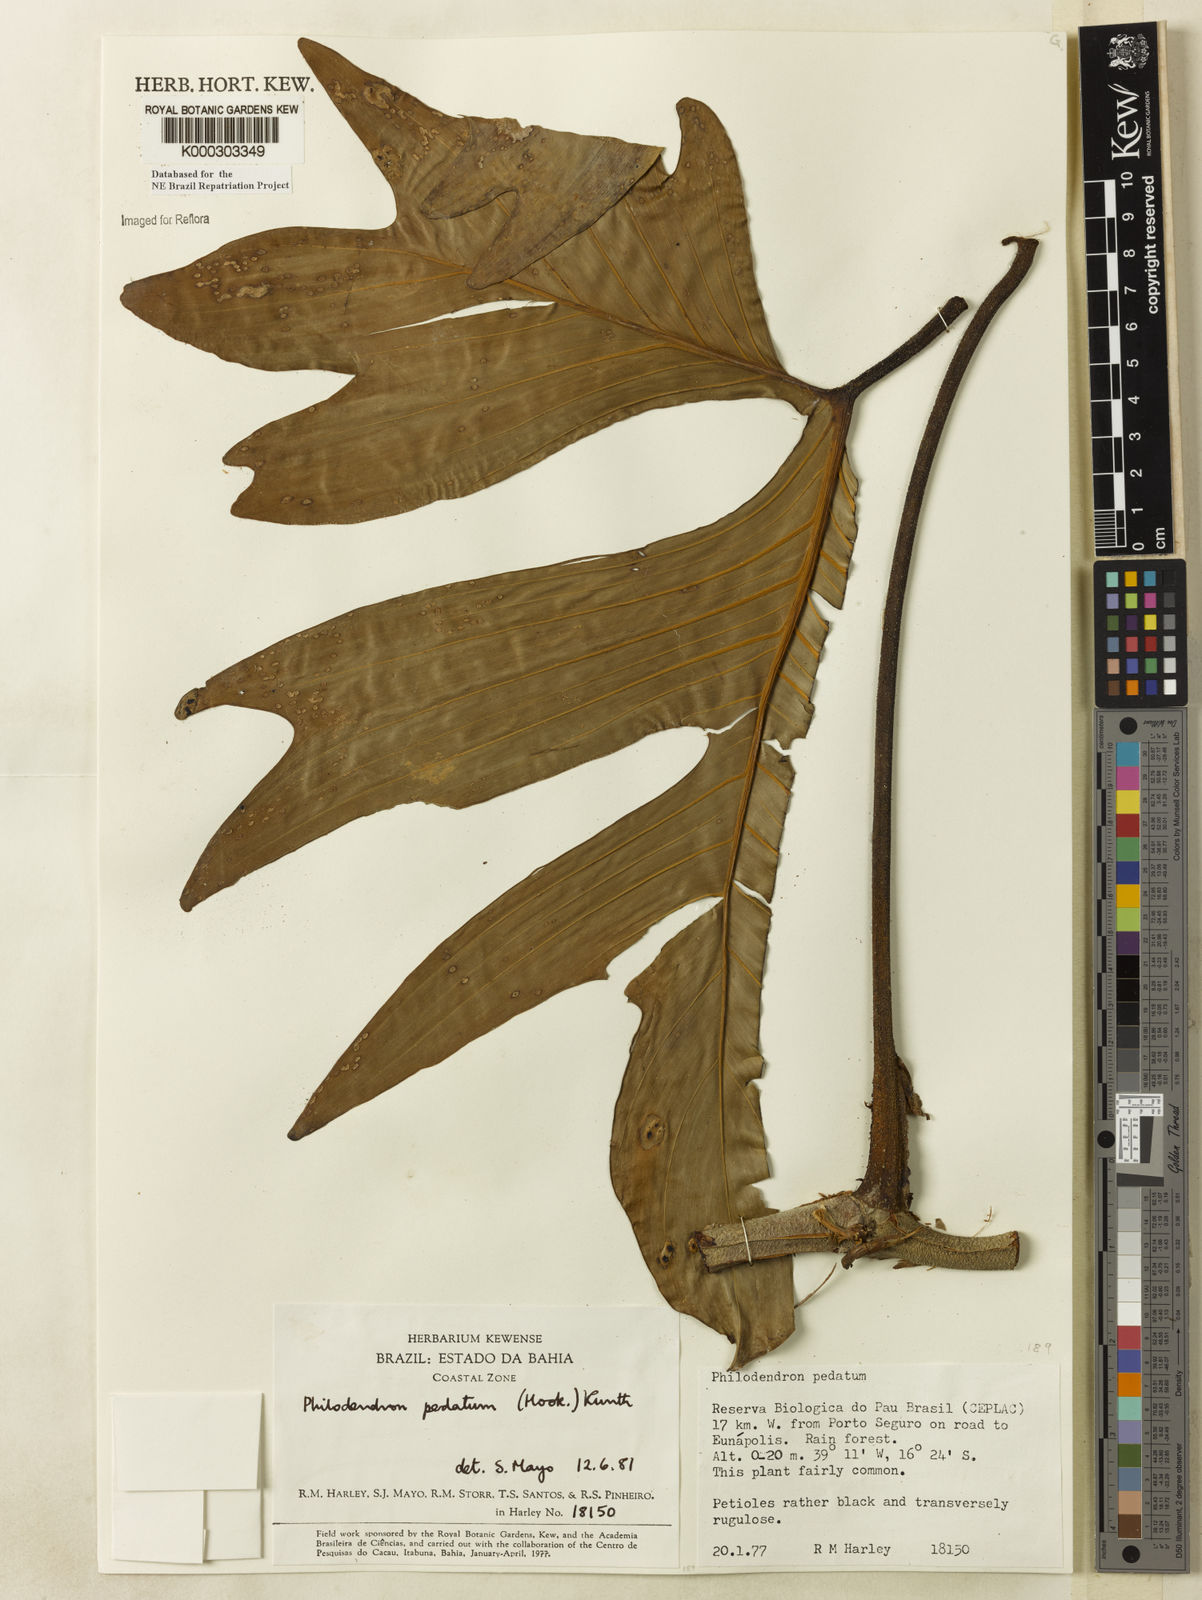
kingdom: Plantae
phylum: Tracheophyta
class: Liliopsida
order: Alismatales
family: Araceae
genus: Philodendron
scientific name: Philodendron pedatum
